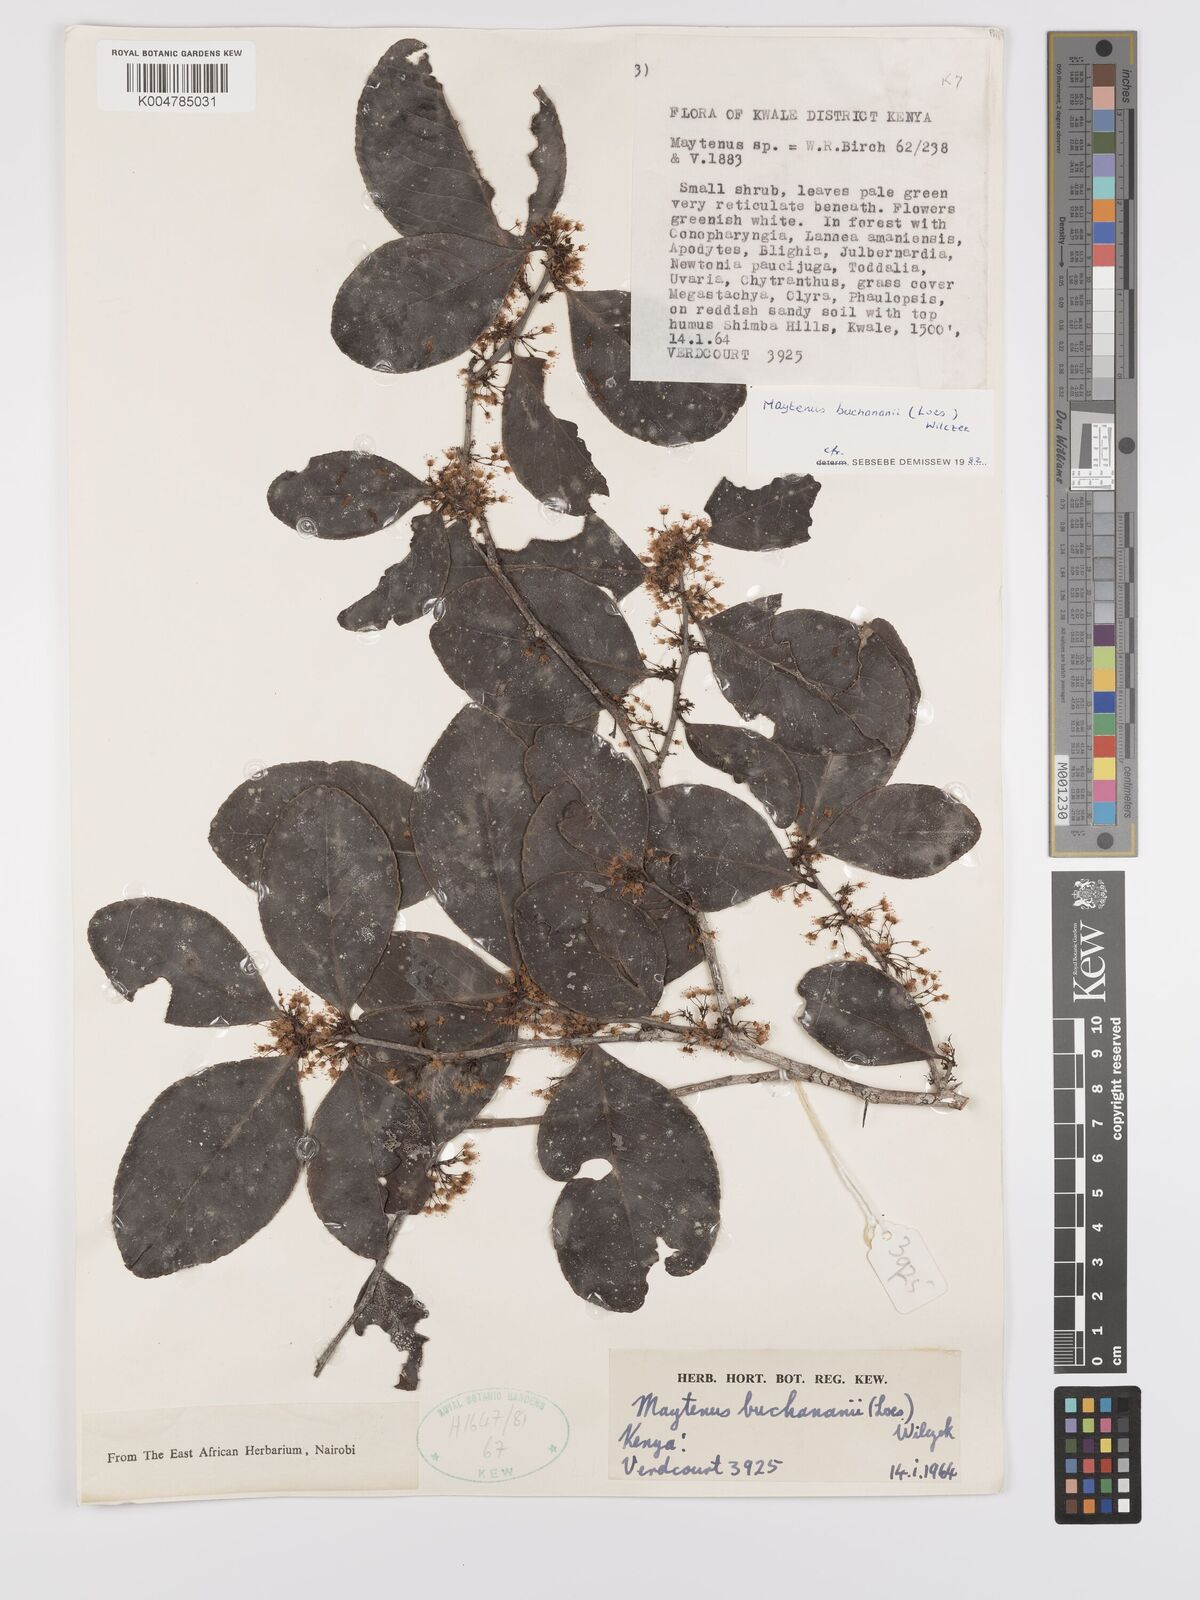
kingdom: Plantae
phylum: Tracheophyta
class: Magnoliopsida
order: Celastrales
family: Celastraceae
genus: Gymnosporia
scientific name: Gymnosporia buchananii
